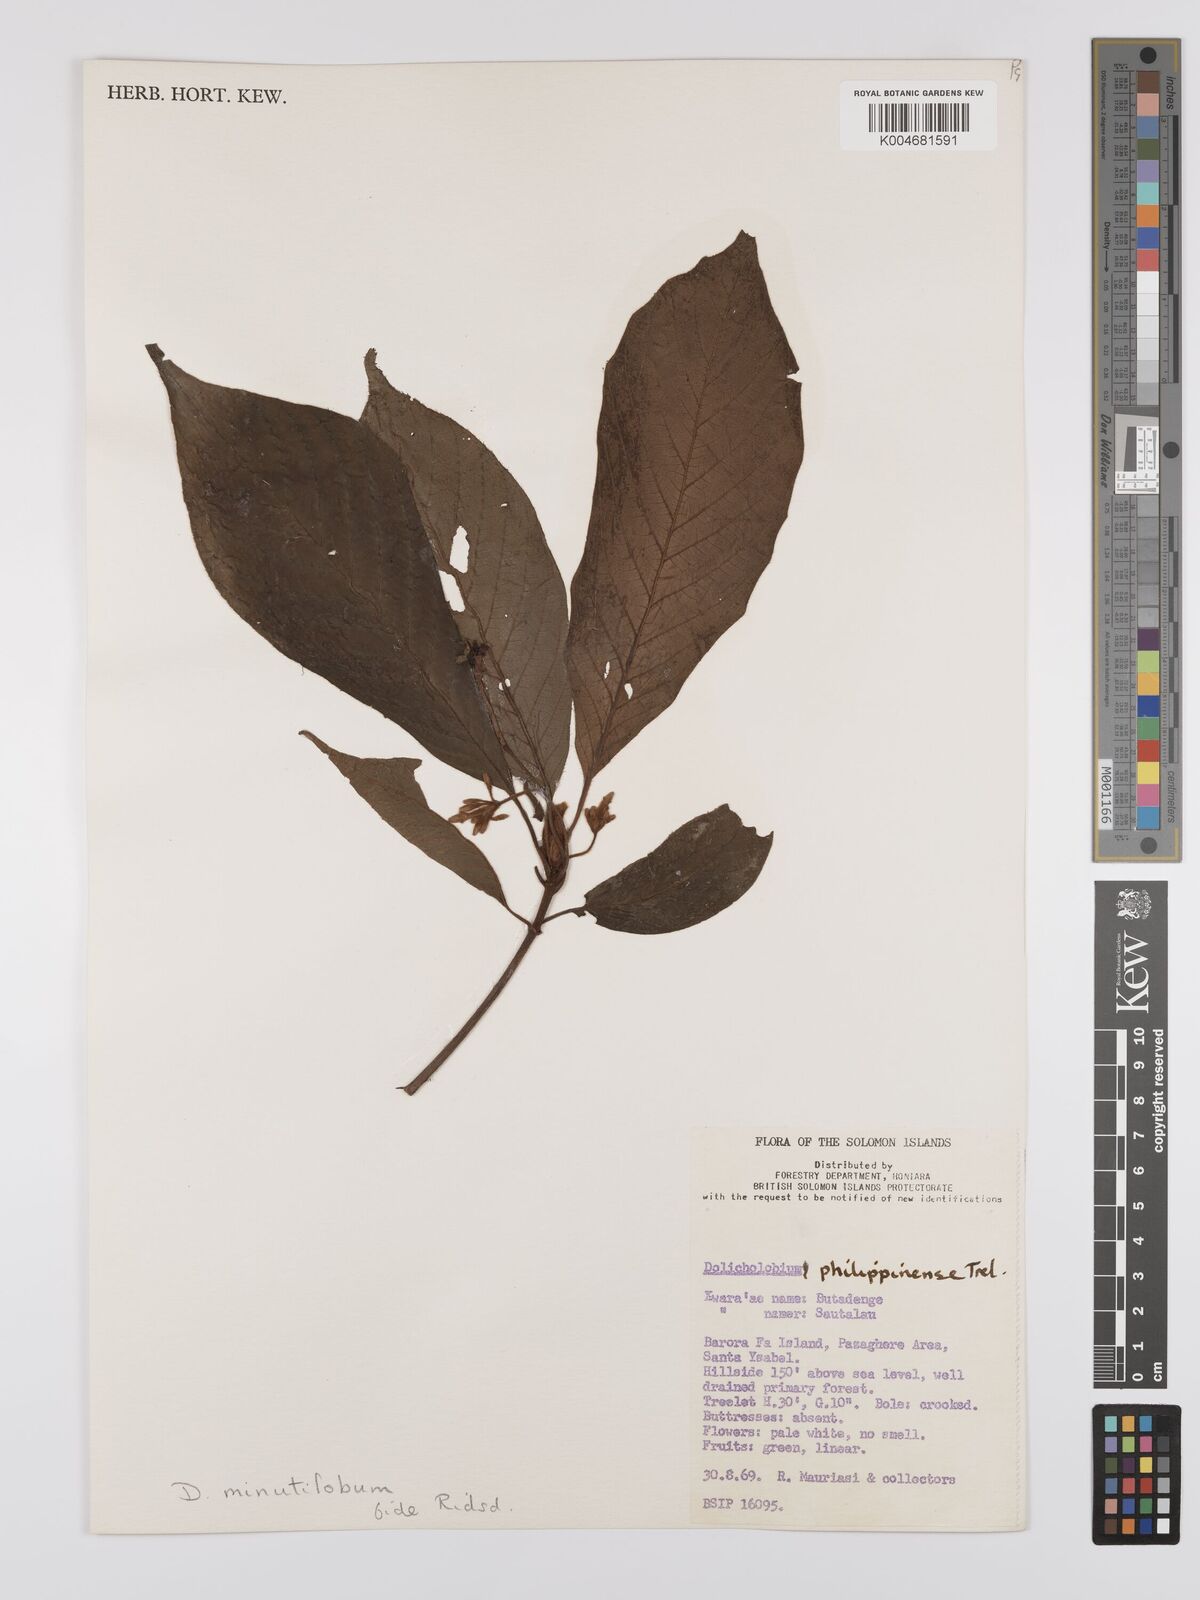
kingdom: Plantae
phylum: Tracheophyta
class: Magnoliopsida
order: Gentianales
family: Rubiaceae
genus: Dolicholobium
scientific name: Dolicholobium minutilobum
